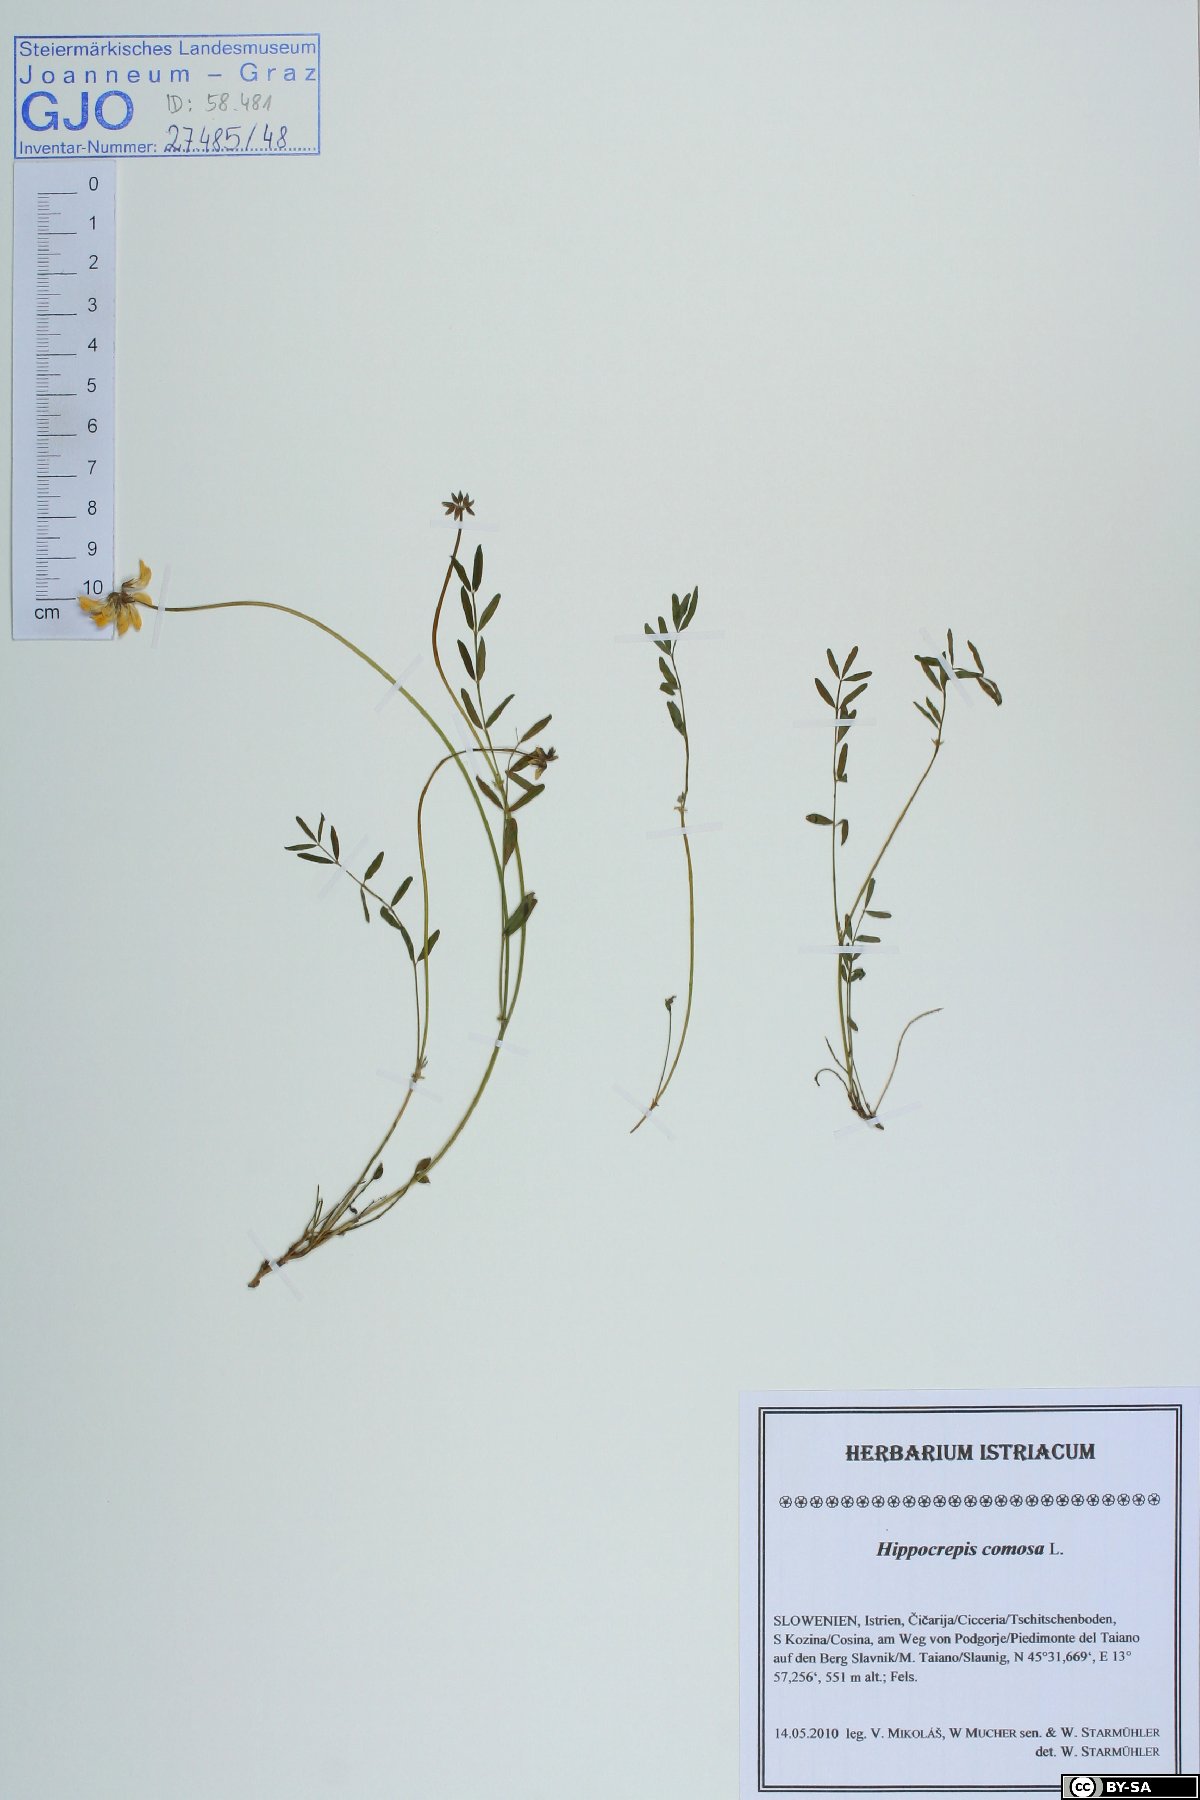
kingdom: Plantae
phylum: Tracheophyta
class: Magnoliopsida
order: Fabales
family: Fabaceae
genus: Hippocrepis
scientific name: Hippocrepis comosa
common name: Horseshoe vetch
